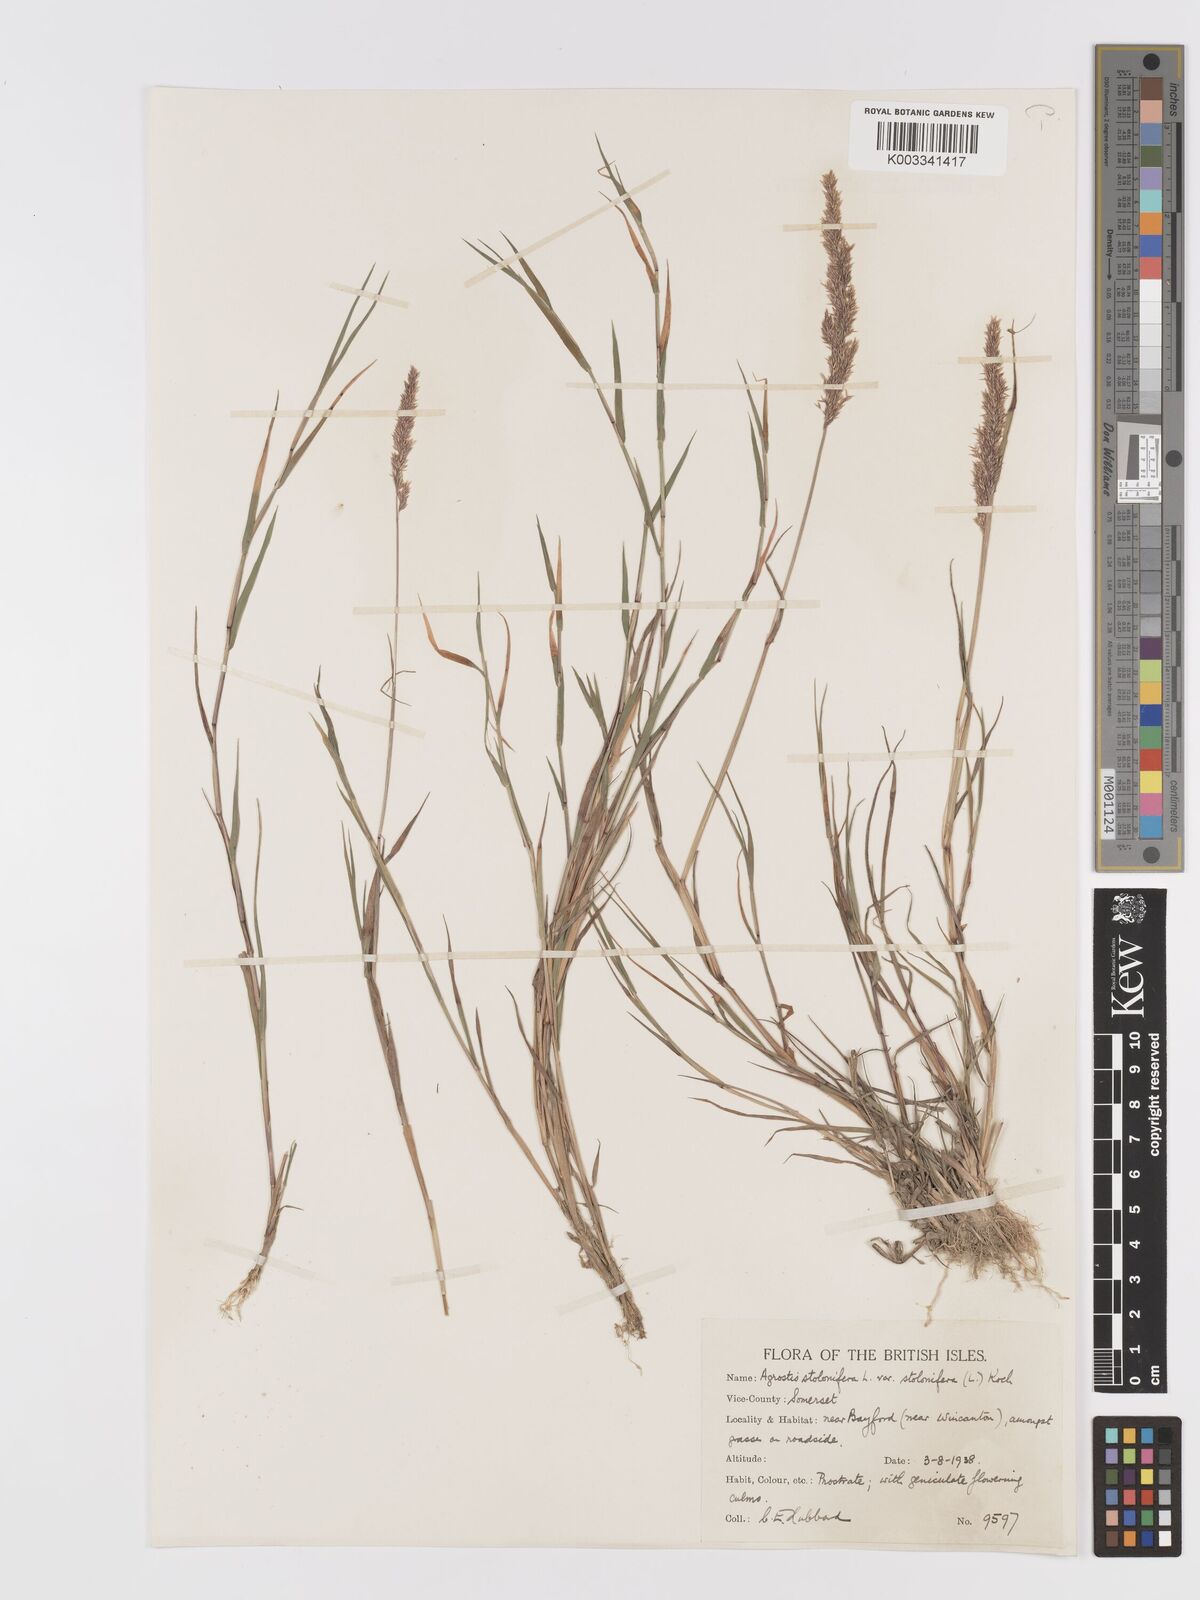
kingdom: Plantae
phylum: Tracheophyta
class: Liliopsida
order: Poales
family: Poaceae
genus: Agrostis
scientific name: Agrostis stolonifera
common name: Creeping bentgrass
